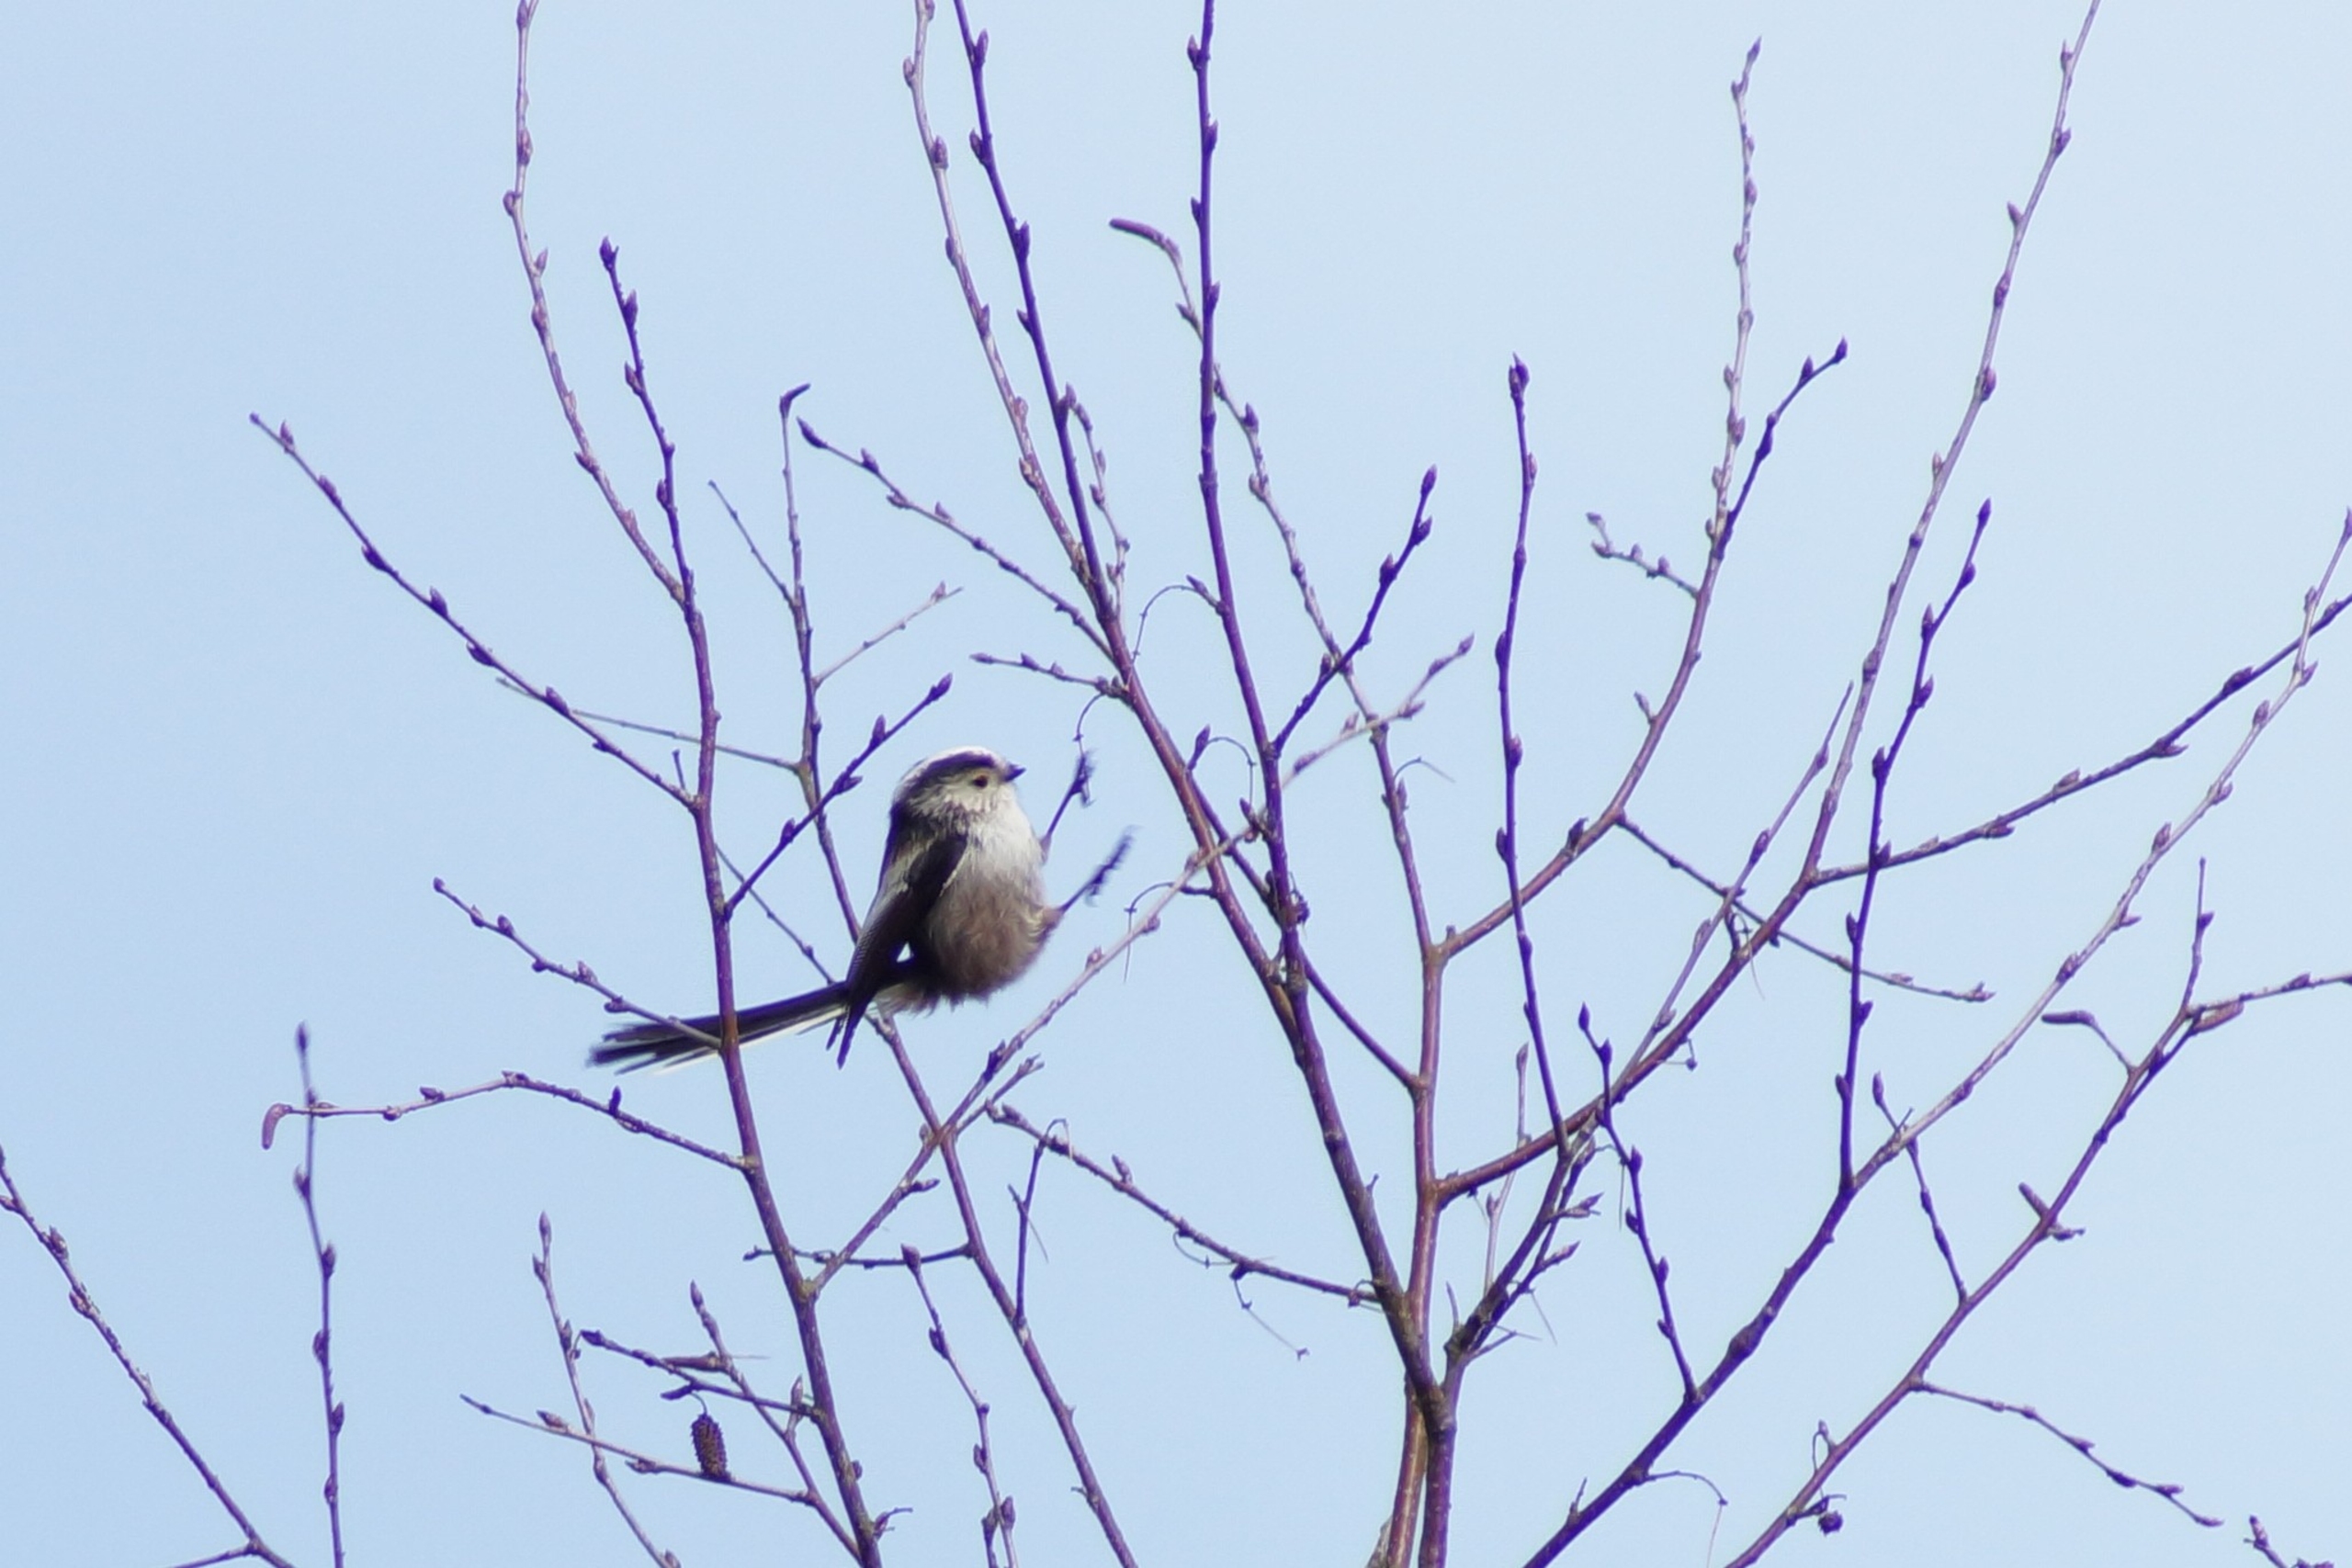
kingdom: Animalia
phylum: Chordata
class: Aves
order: Passeriformes
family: Aegithalidae
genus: Aegithalos
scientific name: Aegithalos caudatus
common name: Halemejse
